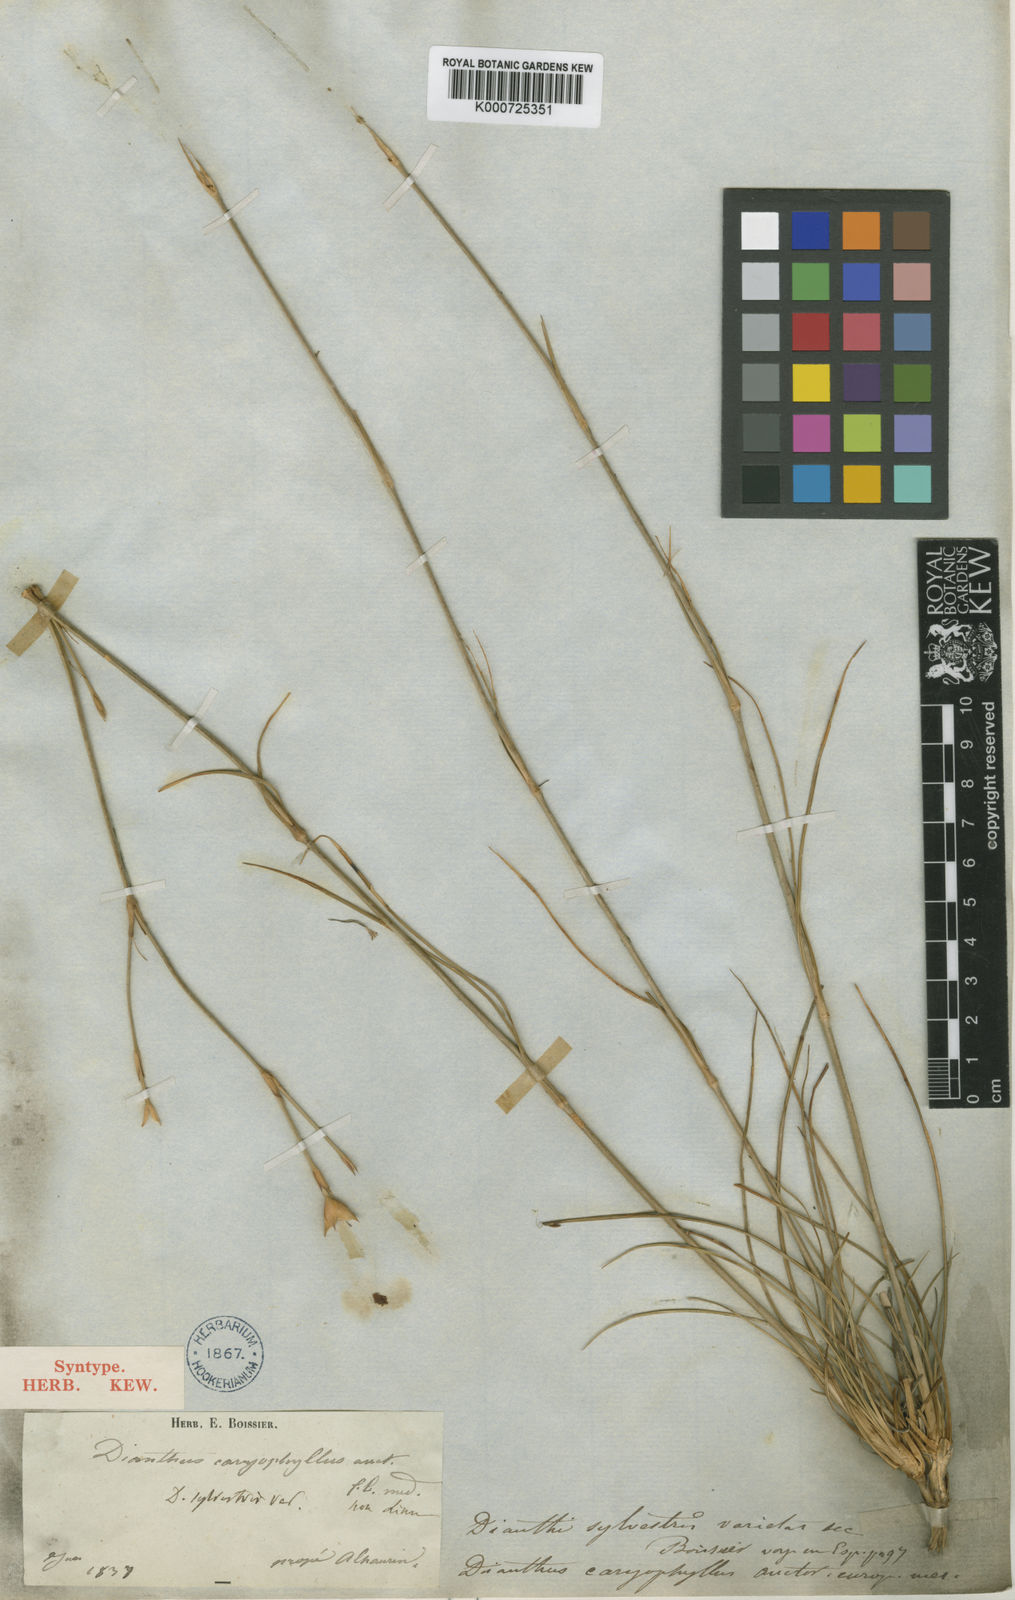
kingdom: Plantae
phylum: Tracheophyta
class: Magnoliopsida
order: Caryophyllales
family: Caryophyllaceae
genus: Dianthus
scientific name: Dianthus sylvestris
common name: Wood pink
